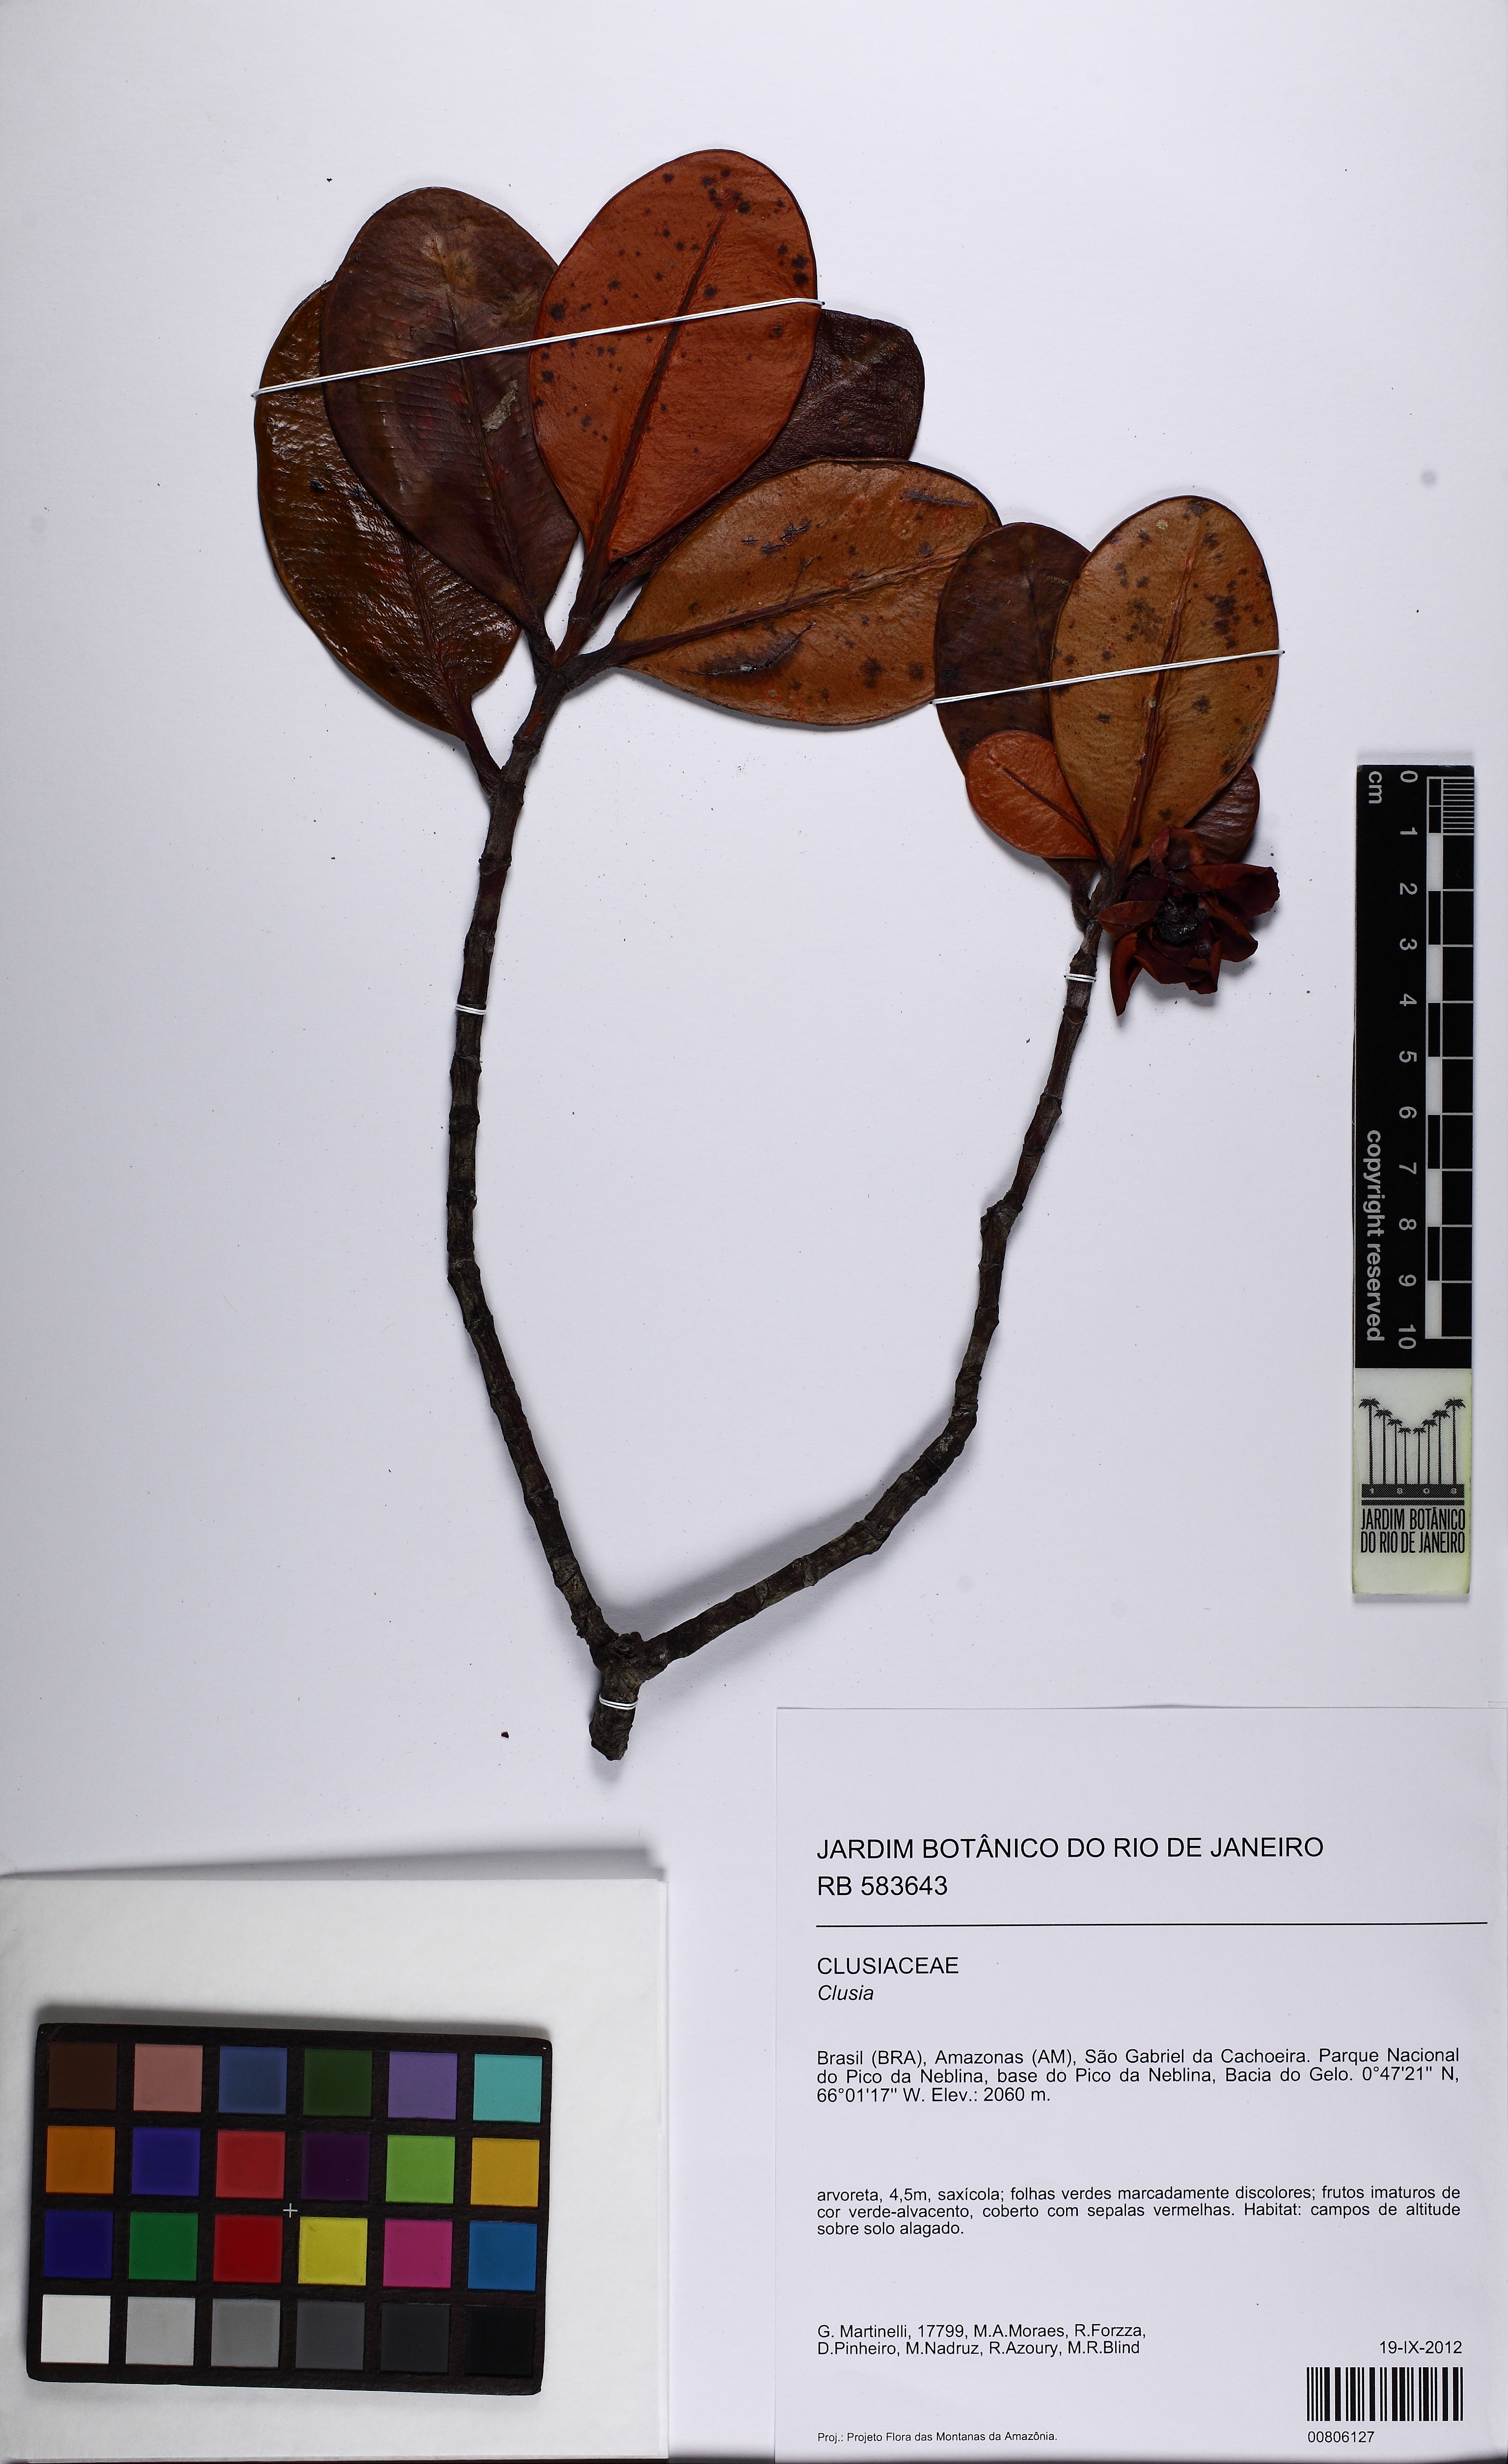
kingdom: Plantae
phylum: Tracheophyta
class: Magnoliopsida
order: Malpighiales
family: Clusiaceae
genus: Clusia
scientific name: Clusia
